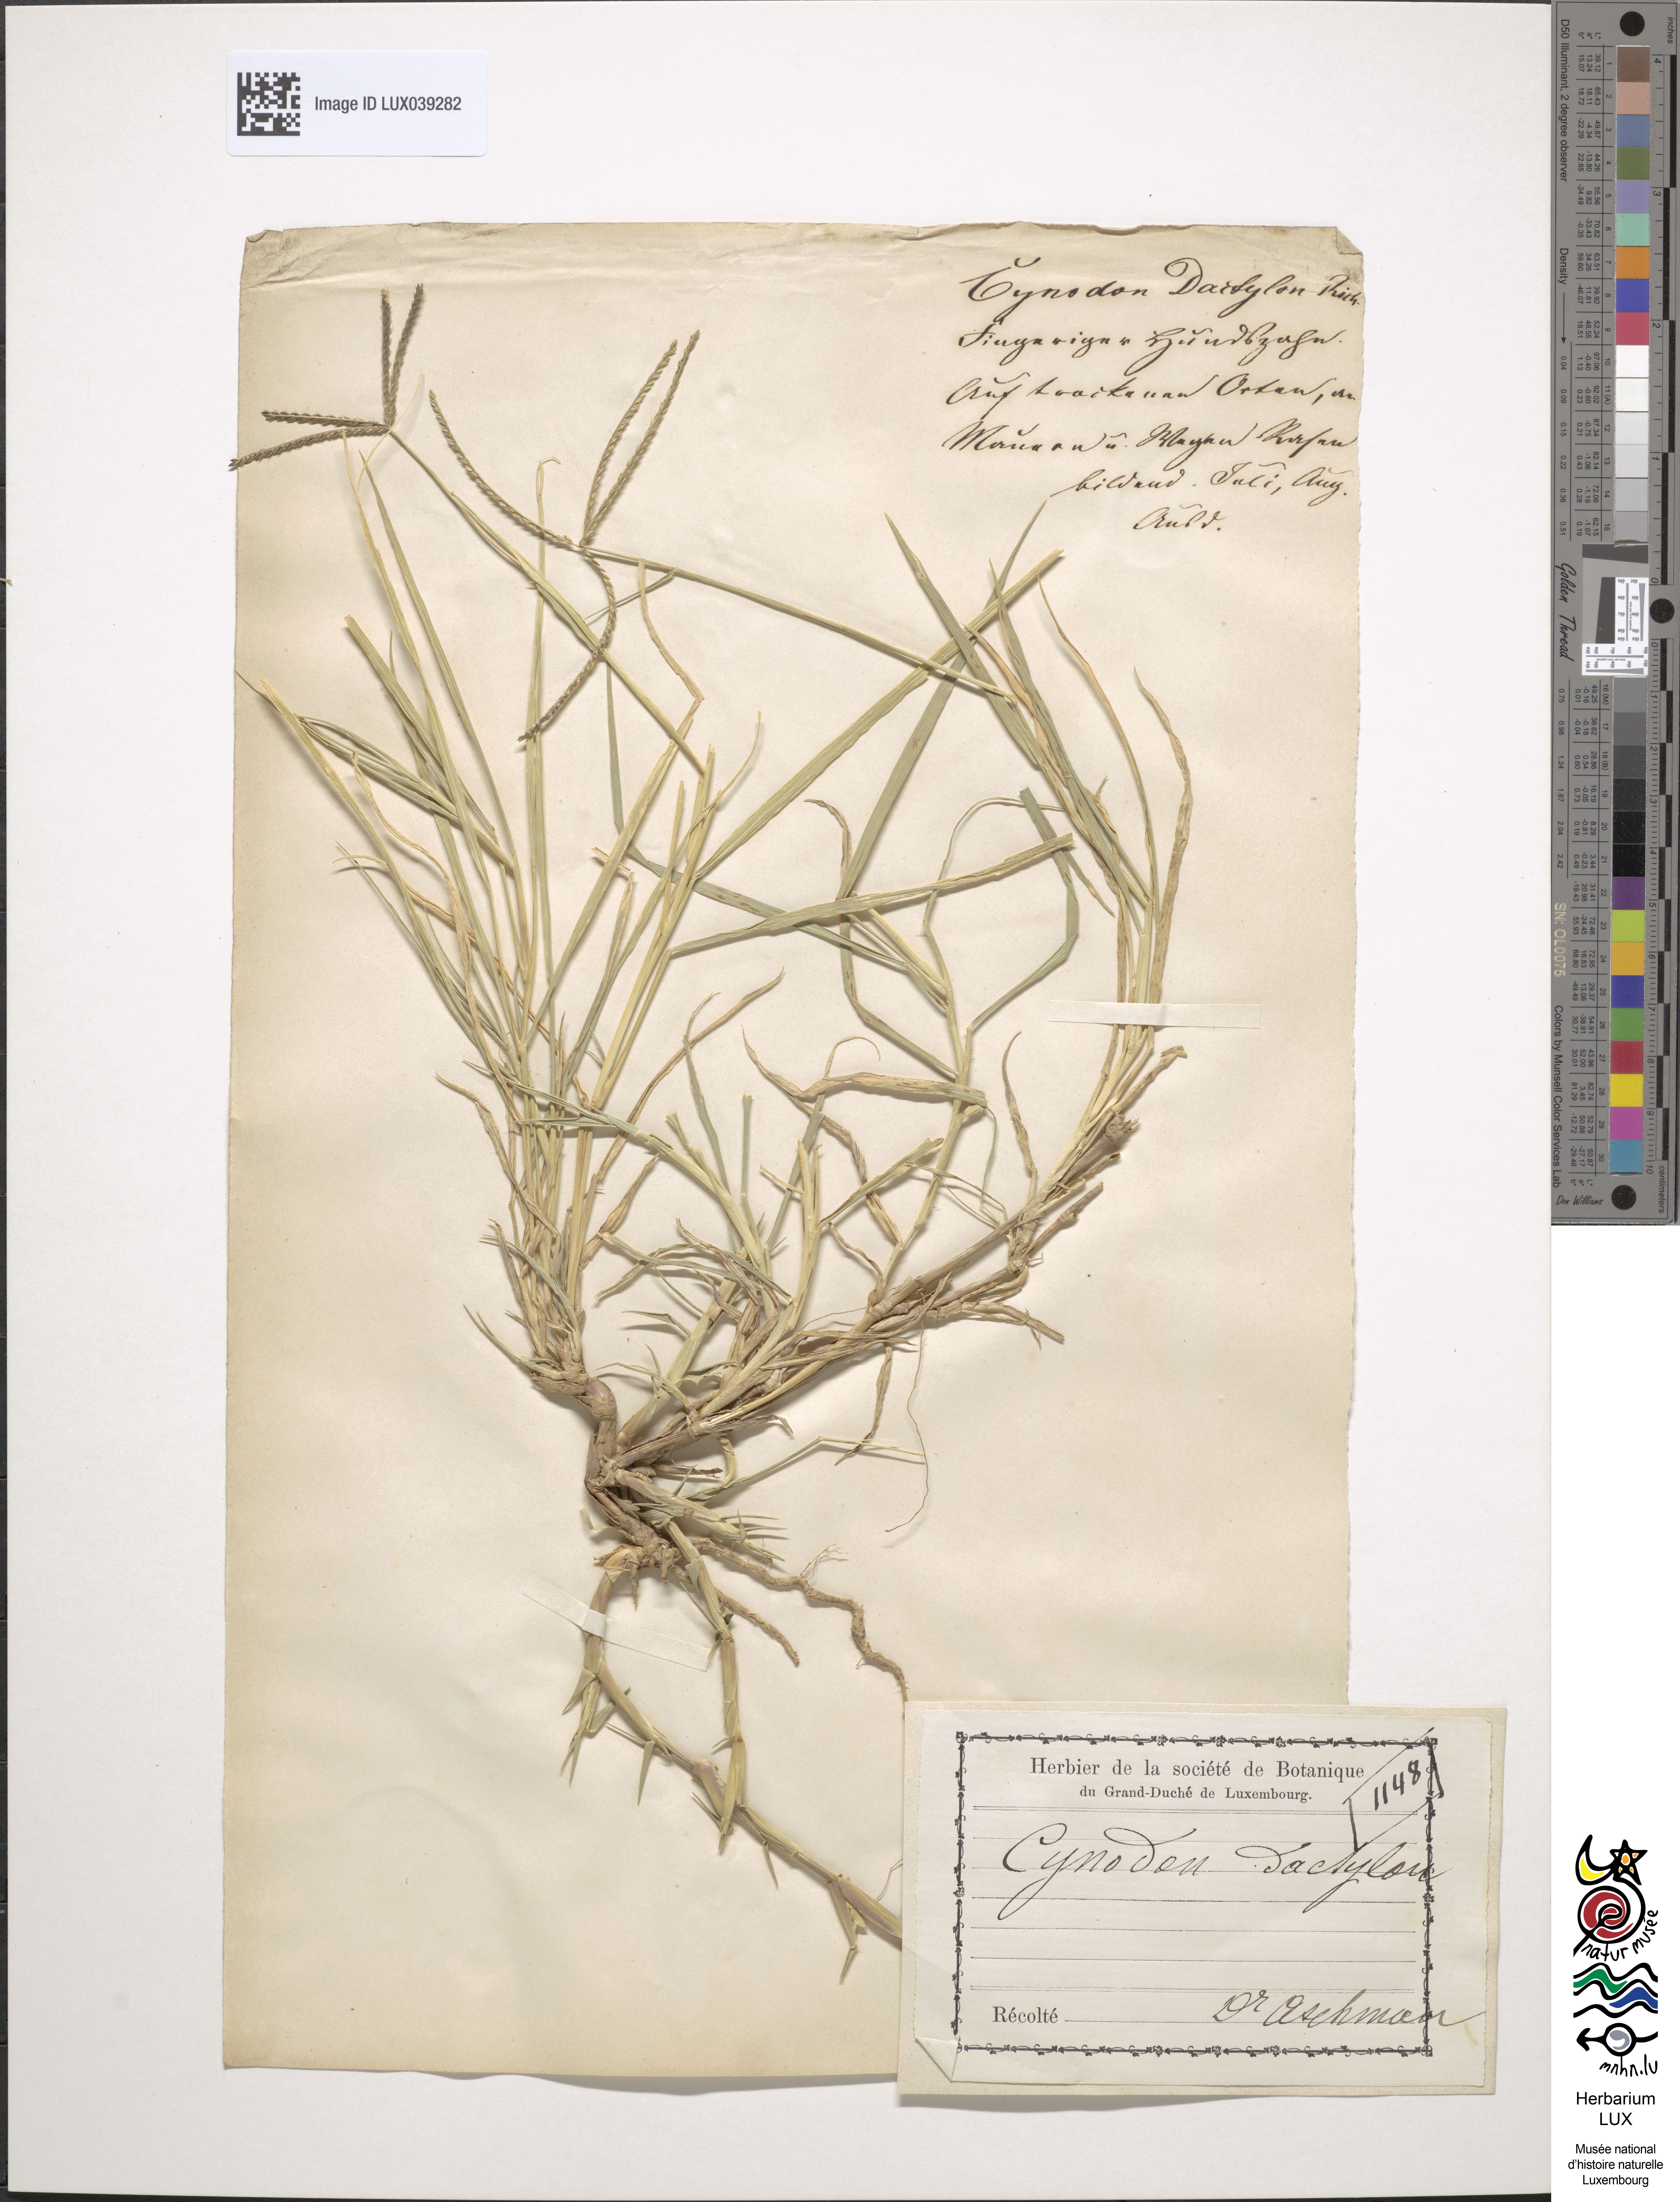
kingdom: Plantae
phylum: Tracheophyta
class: Liliopsida
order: Poales
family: Poaceae
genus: Cynodon
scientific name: Cynodon dactylon
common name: Bermuda grass
